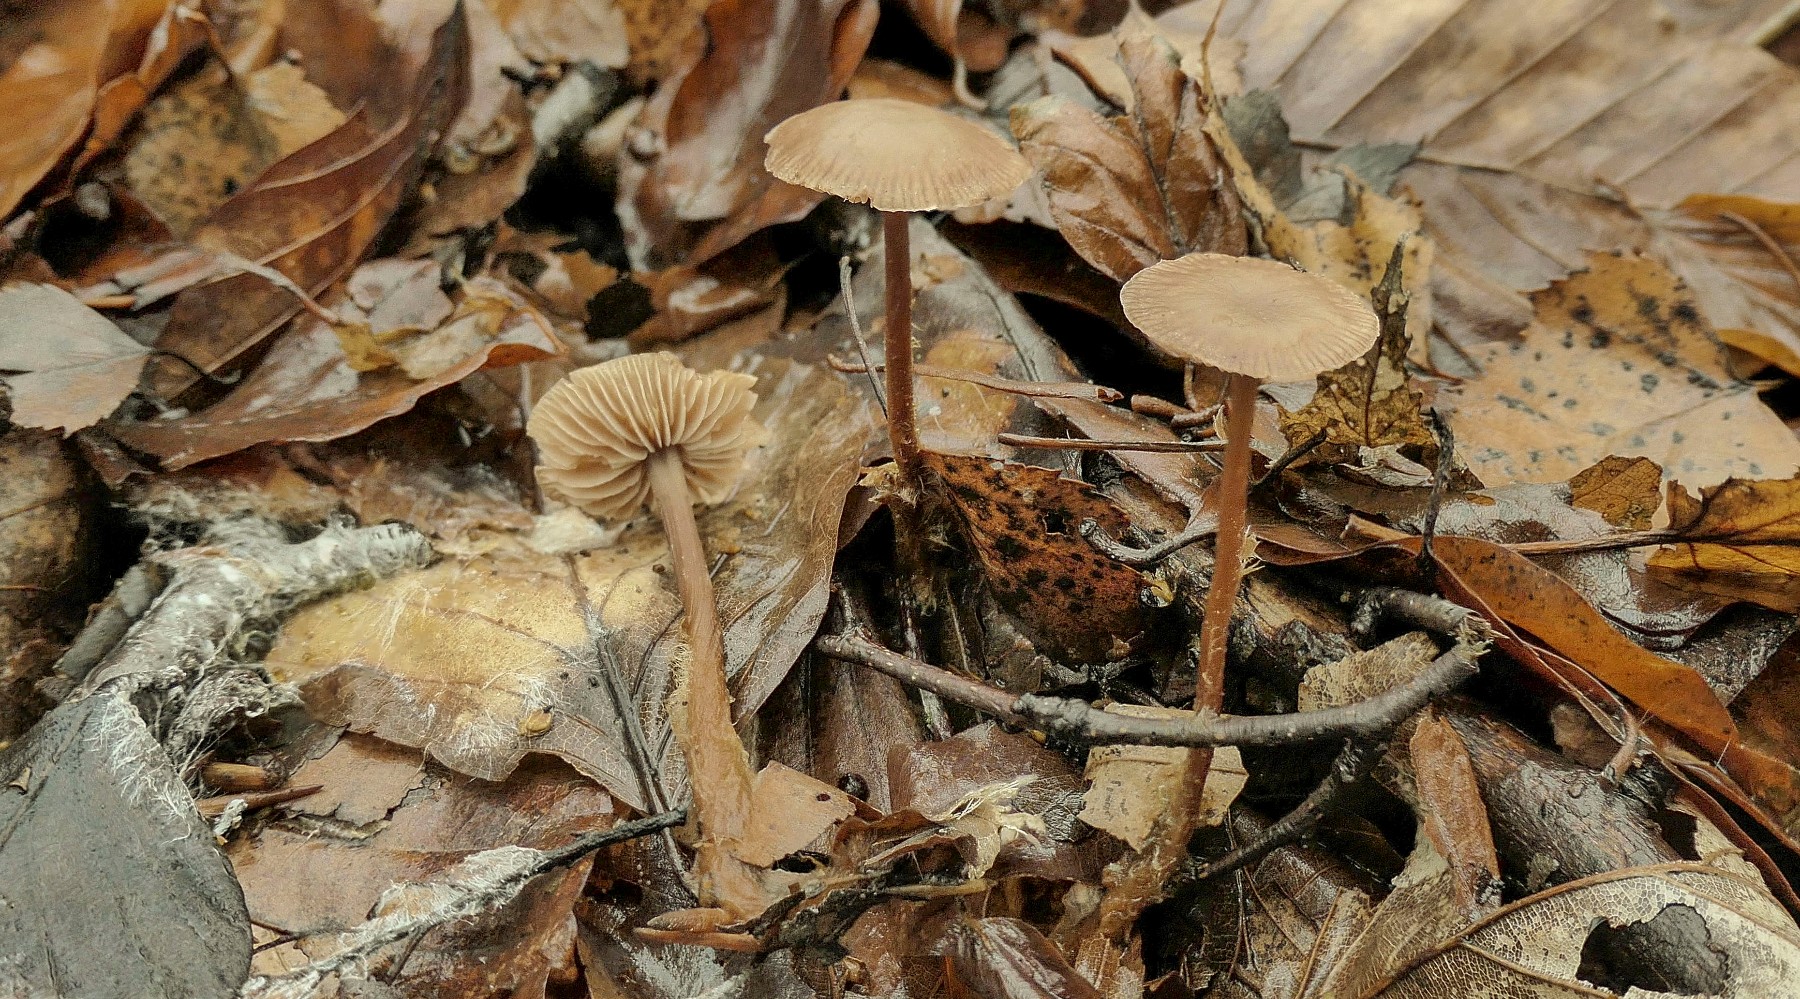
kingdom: Fungi
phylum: Basidiomycota
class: Agaricomycetes
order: Agaricales
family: Omphalotaceae
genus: Gymnopus
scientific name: Gymnopus fagiphilus
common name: bøgeløv-fladhat
